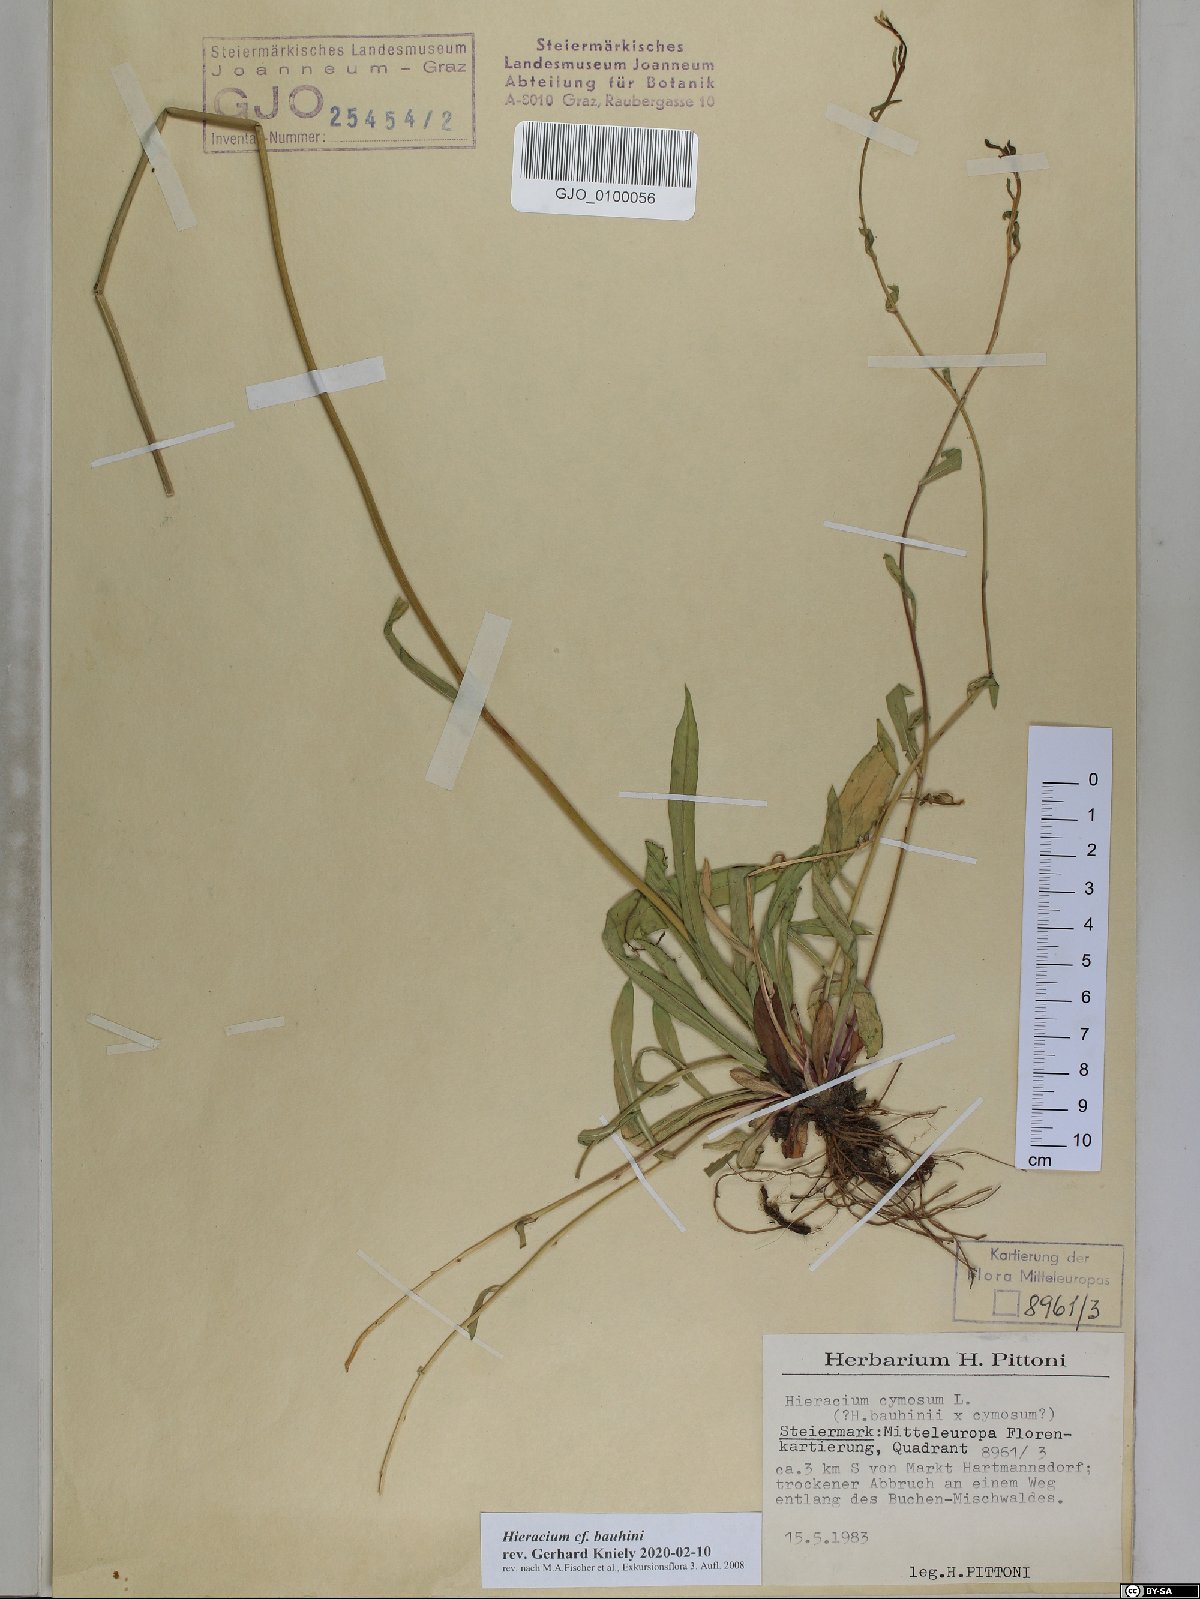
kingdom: Plantae
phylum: Tracheophyta
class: Magnoliopsida
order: Asterales
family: Asteraceae
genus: Pilosella
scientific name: Pilosella bauhini
